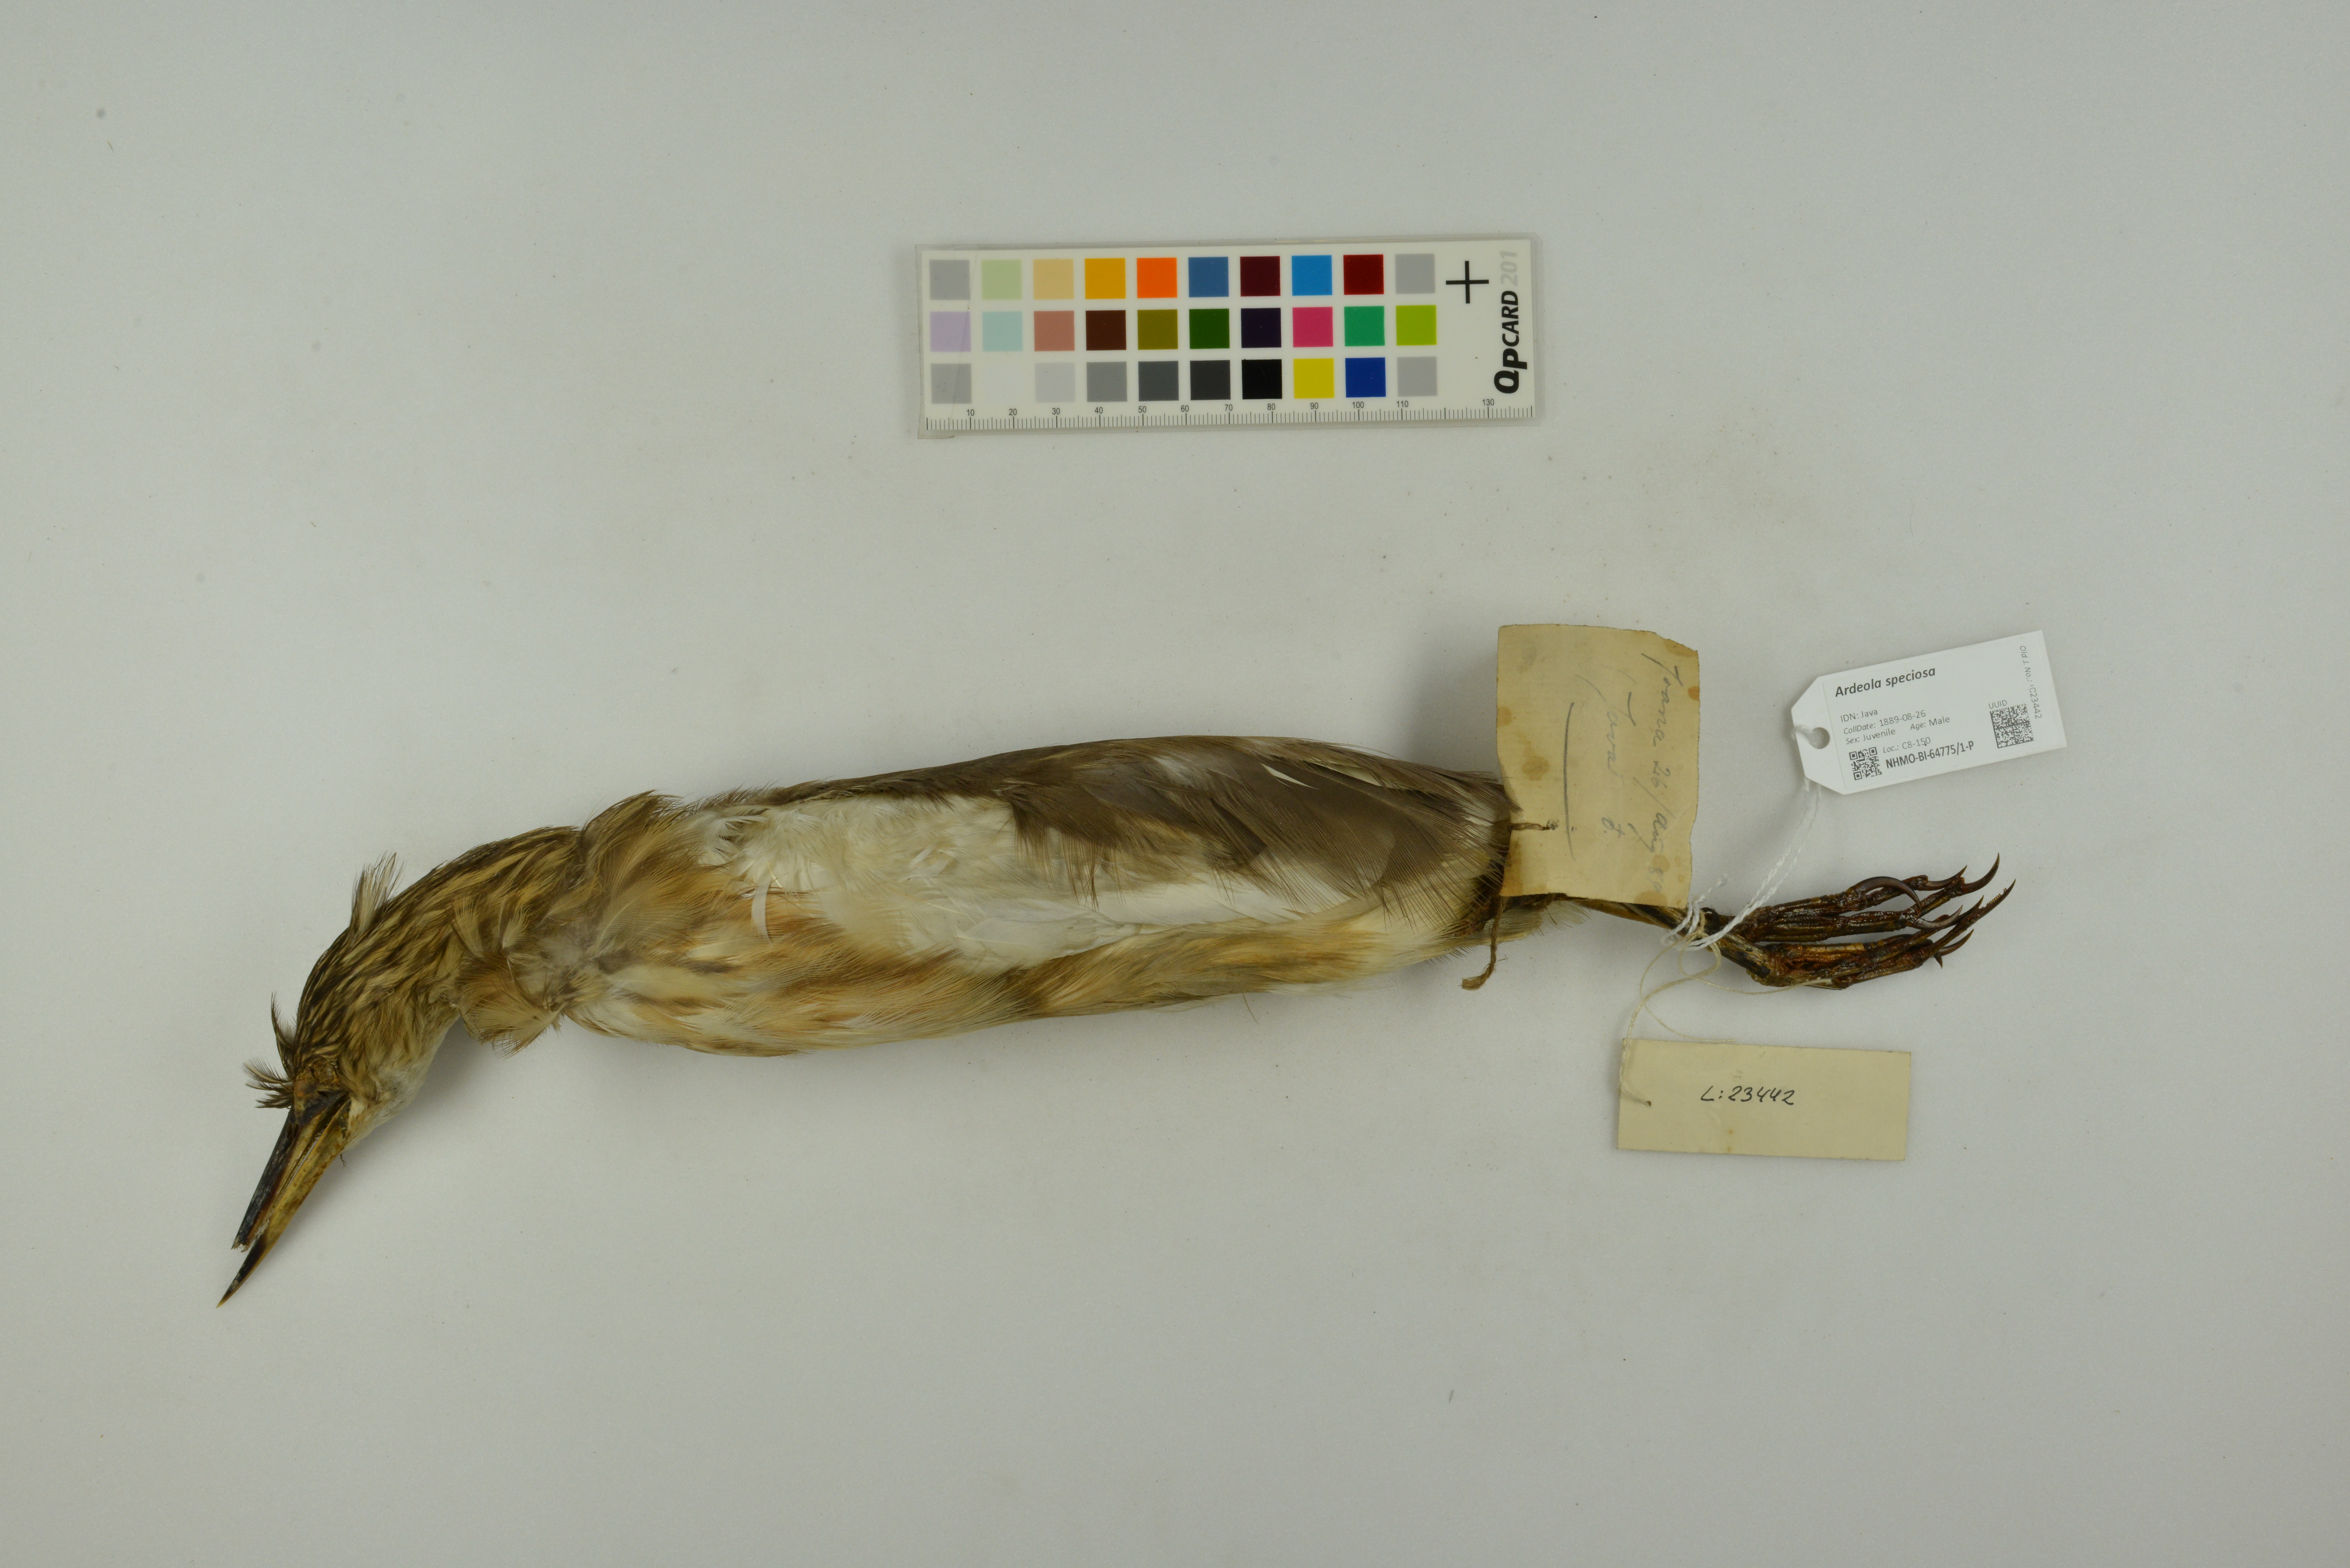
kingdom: Animalia
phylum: Chordata
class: Aves
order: Pelecaniformes
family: Ardeidae
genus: Ardeola
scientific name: Ardeola speciosa
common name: Javan pond heron
